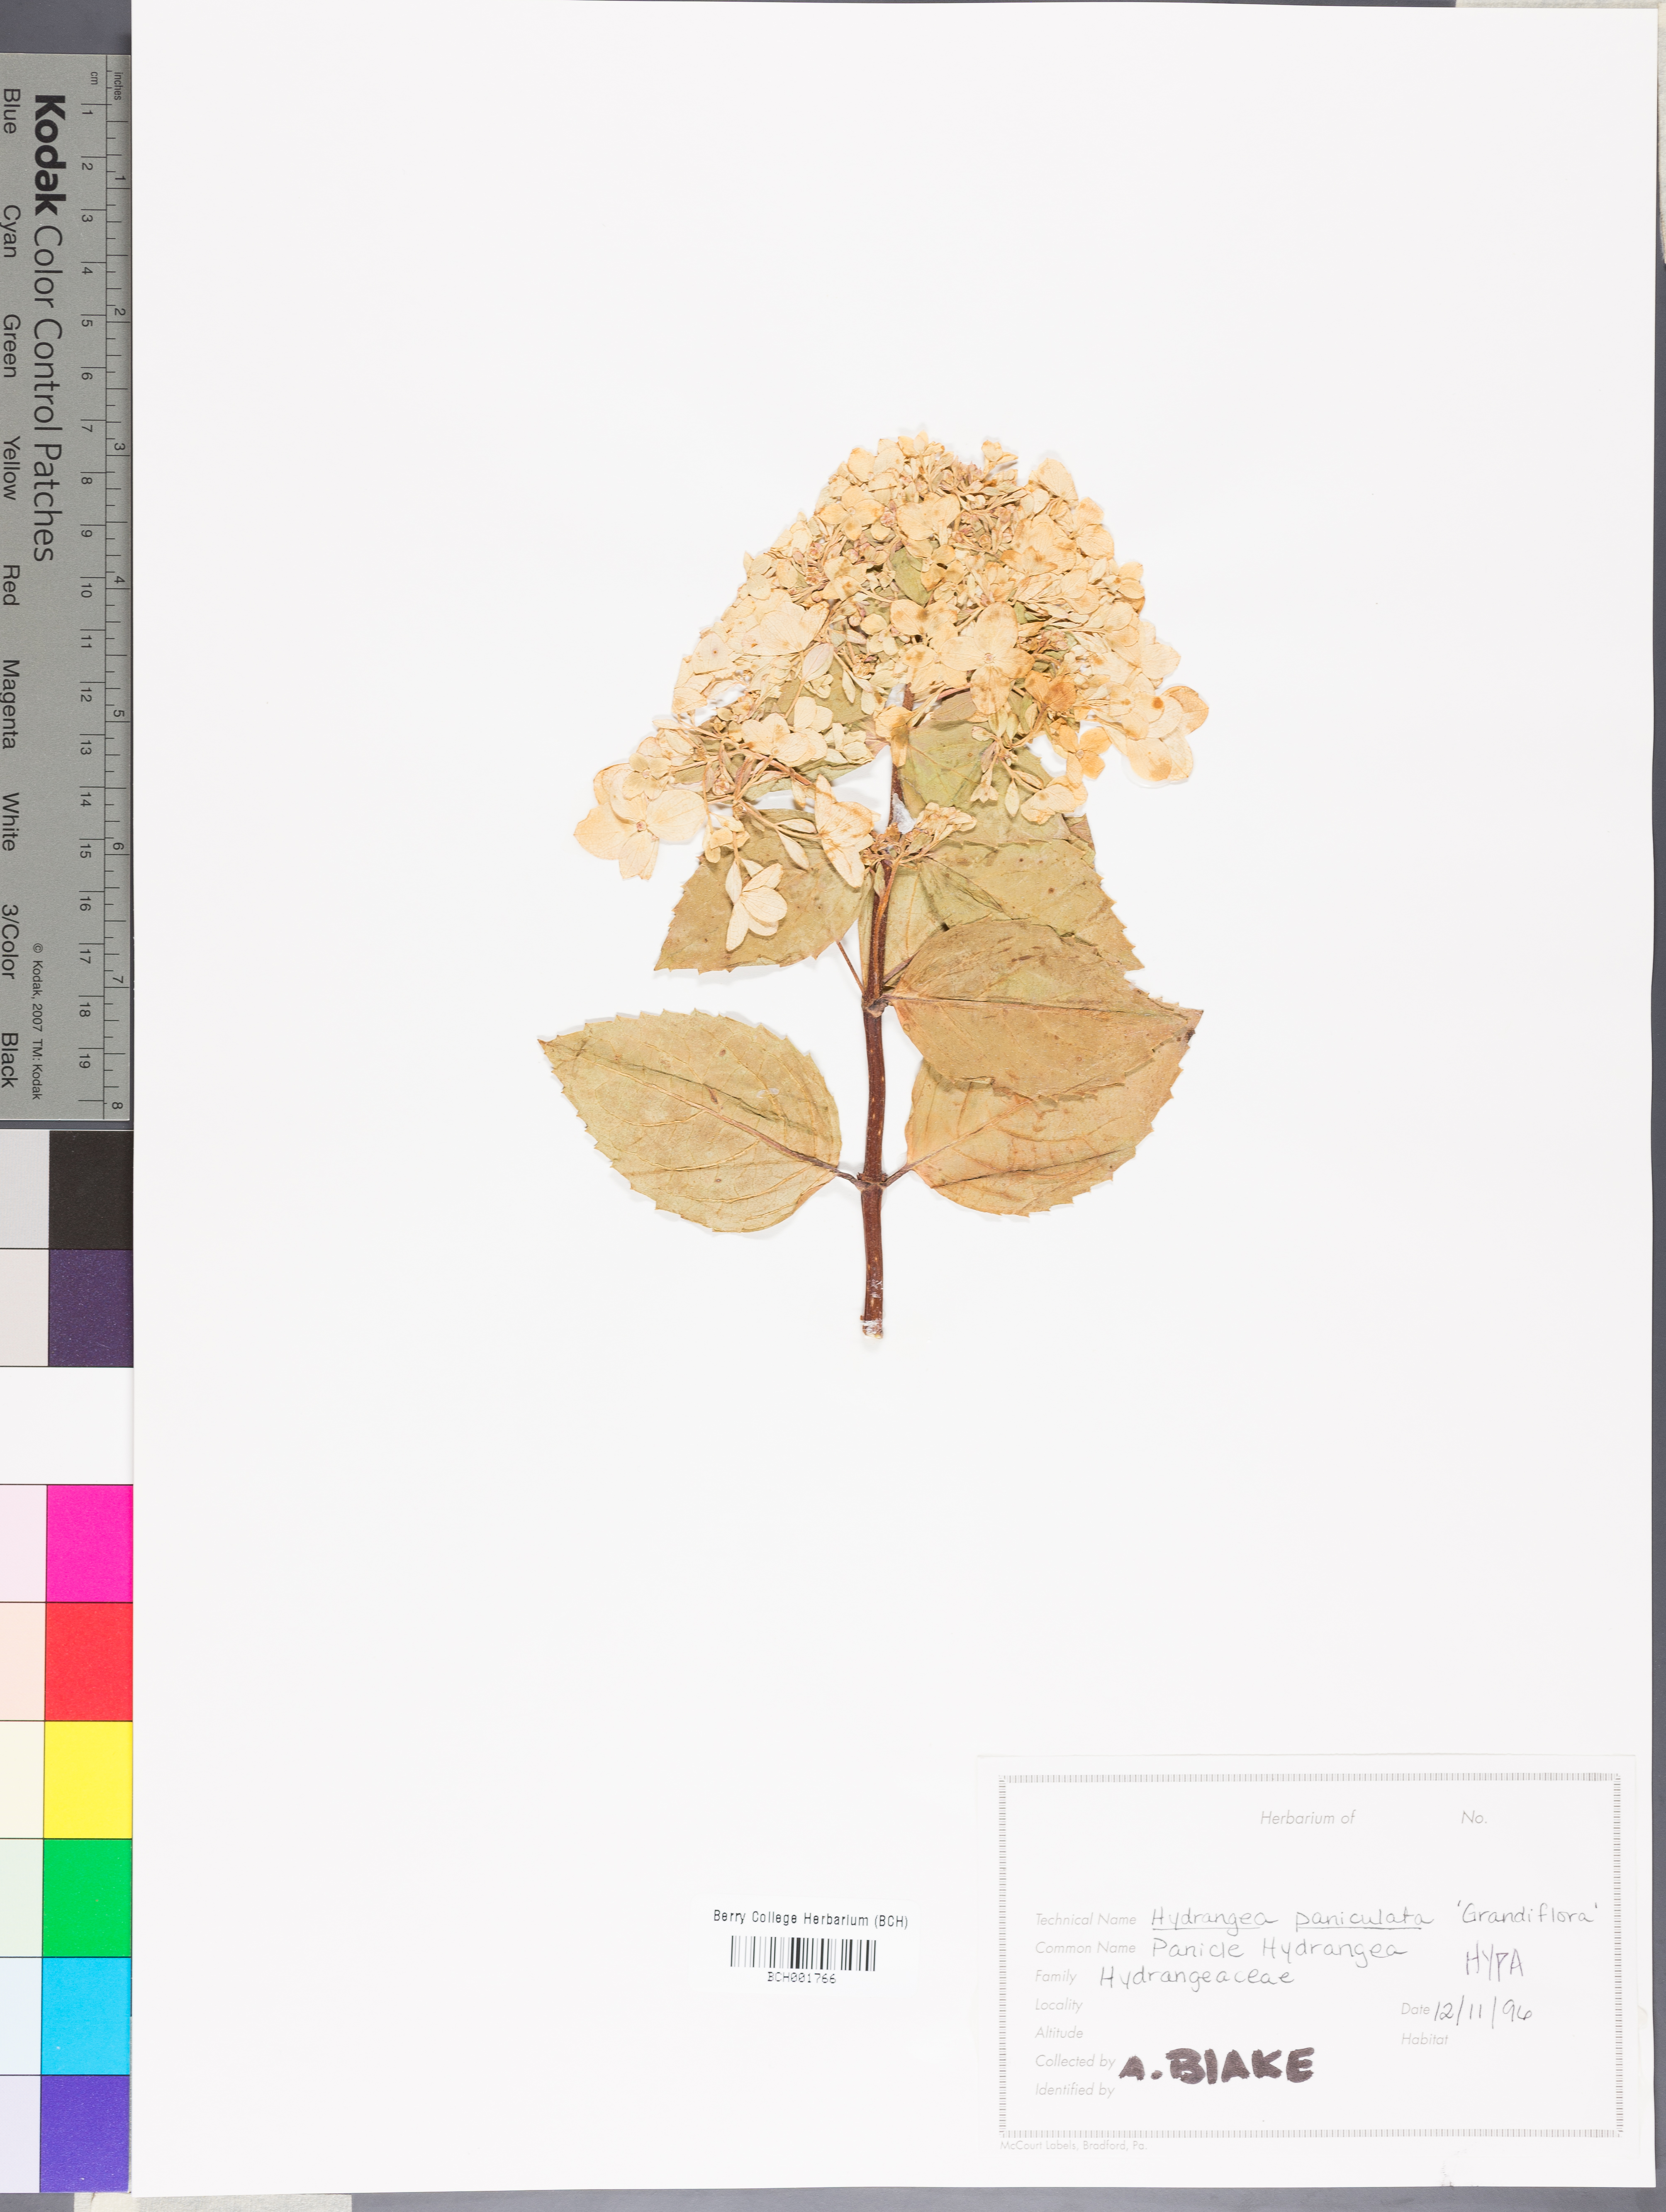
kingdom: Plantae
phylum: Tracheophyta
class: Magnoliopsida
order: Cornales
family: Hydrangeaceae
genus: Hydrangea
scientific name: Hydrangea paniculata
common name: Panicled hydrangea
